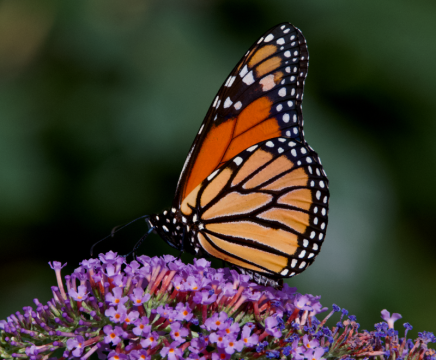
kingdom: Animalia
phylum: Arthropoda
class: Insecta
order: Lepidoptera
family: Nymphalidae
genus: Danaus
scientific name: Danaus plexippus
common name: Monarch
